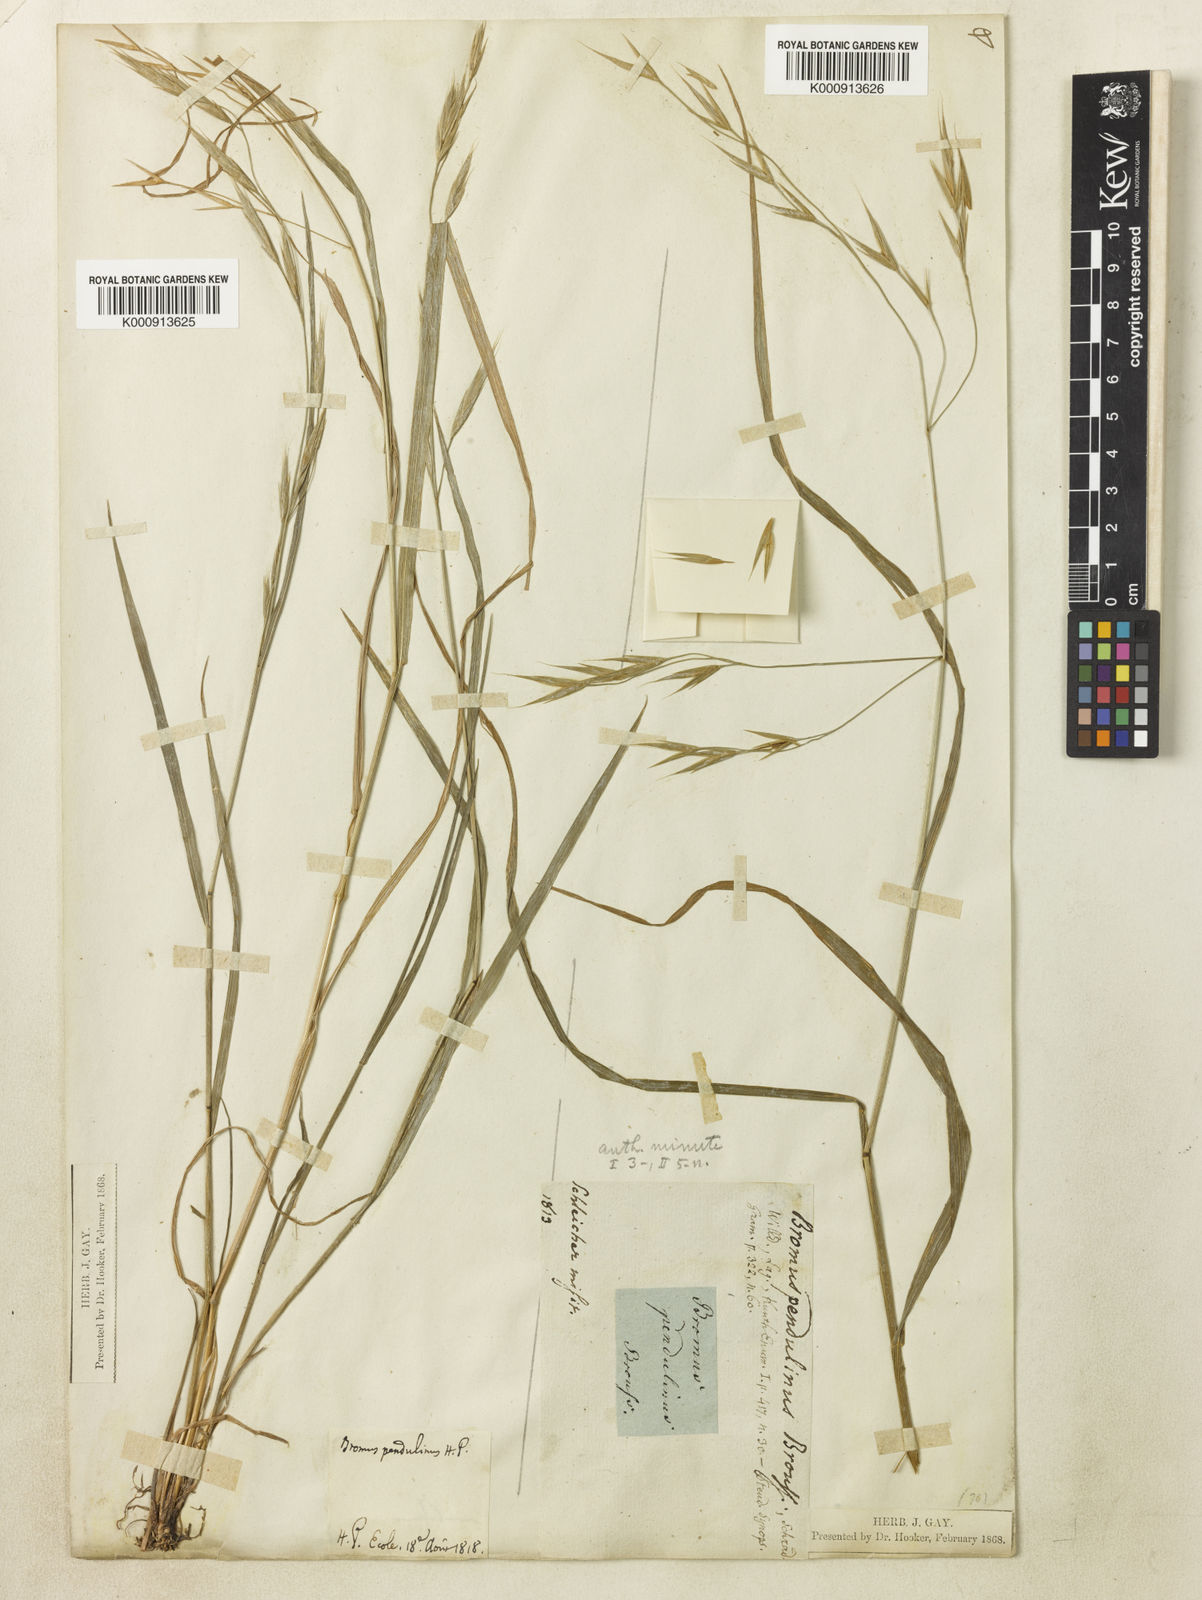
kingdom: Plantae
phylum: Tracheophyta
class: Liliopsida
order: Poales
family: Poaceae
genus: Bromus
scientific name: Bromus commutatus
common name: Meadow brome
